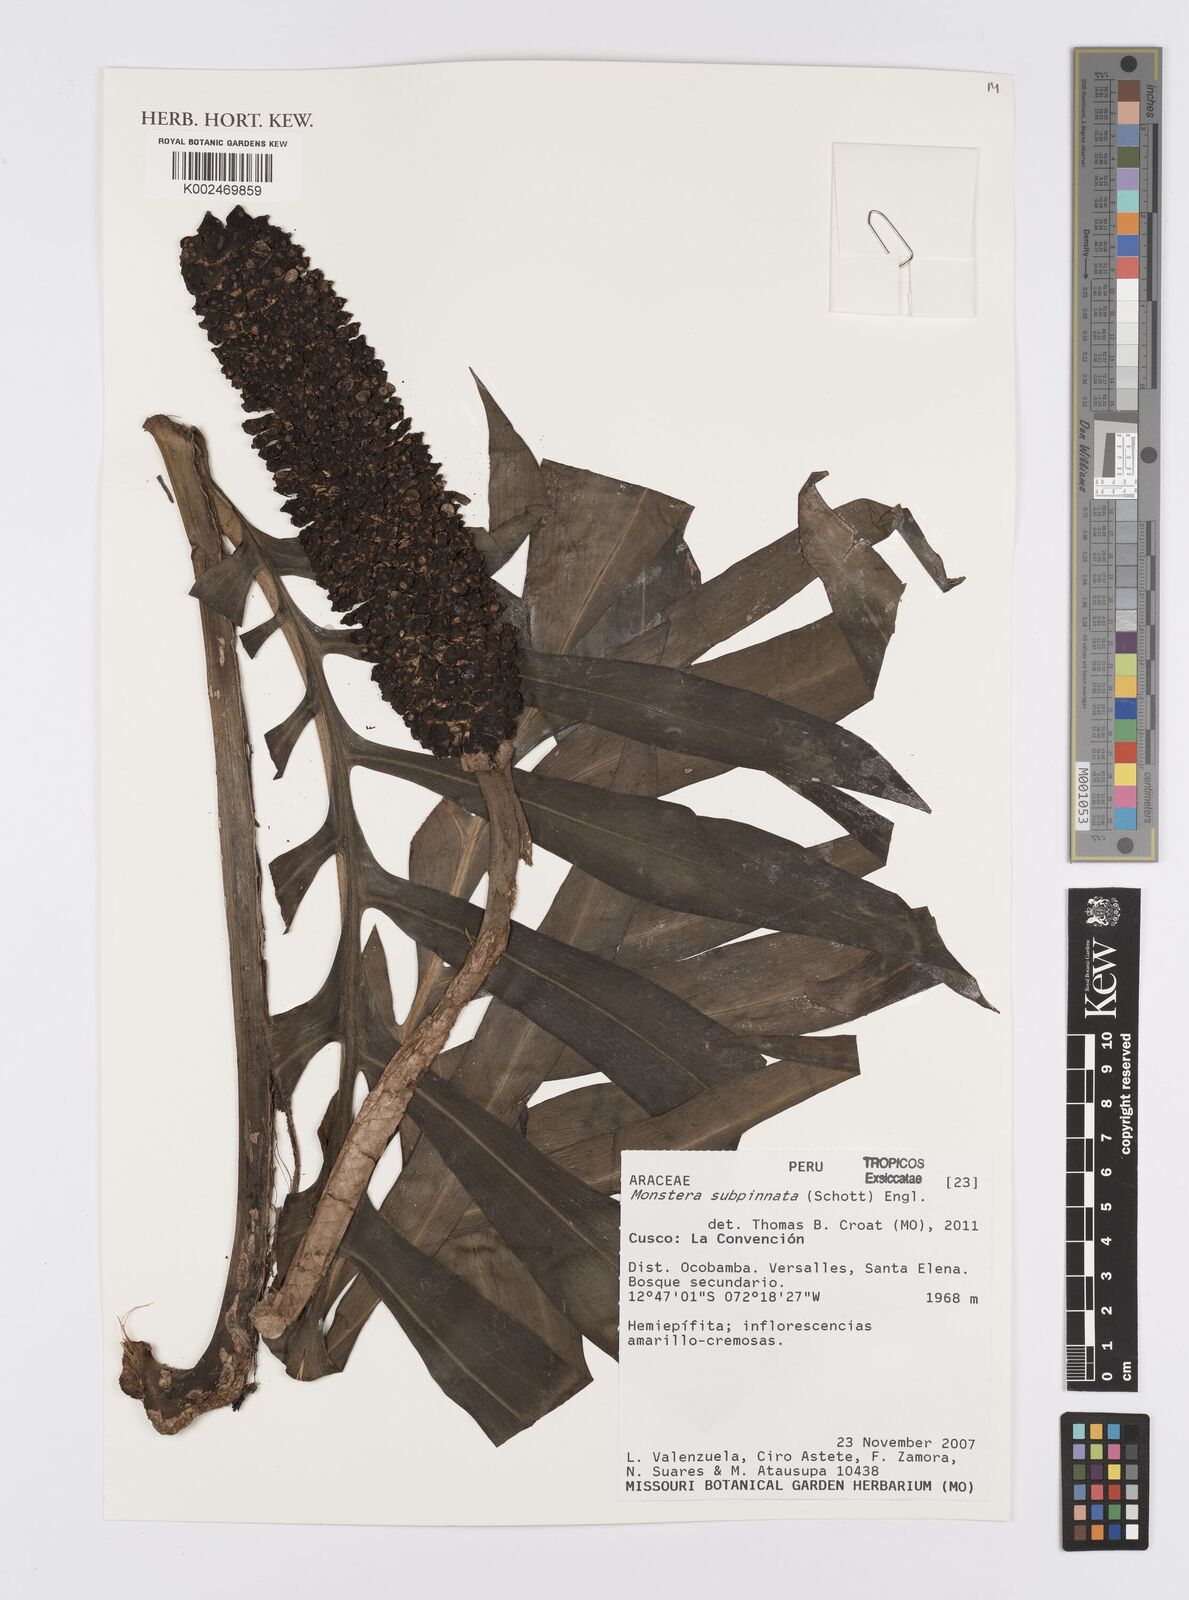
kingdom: Plantae
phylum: Tracheophyta
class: Liliopsida
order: Alismatales
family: Araceae
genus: Monstera
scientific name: Monstera subpinnata
